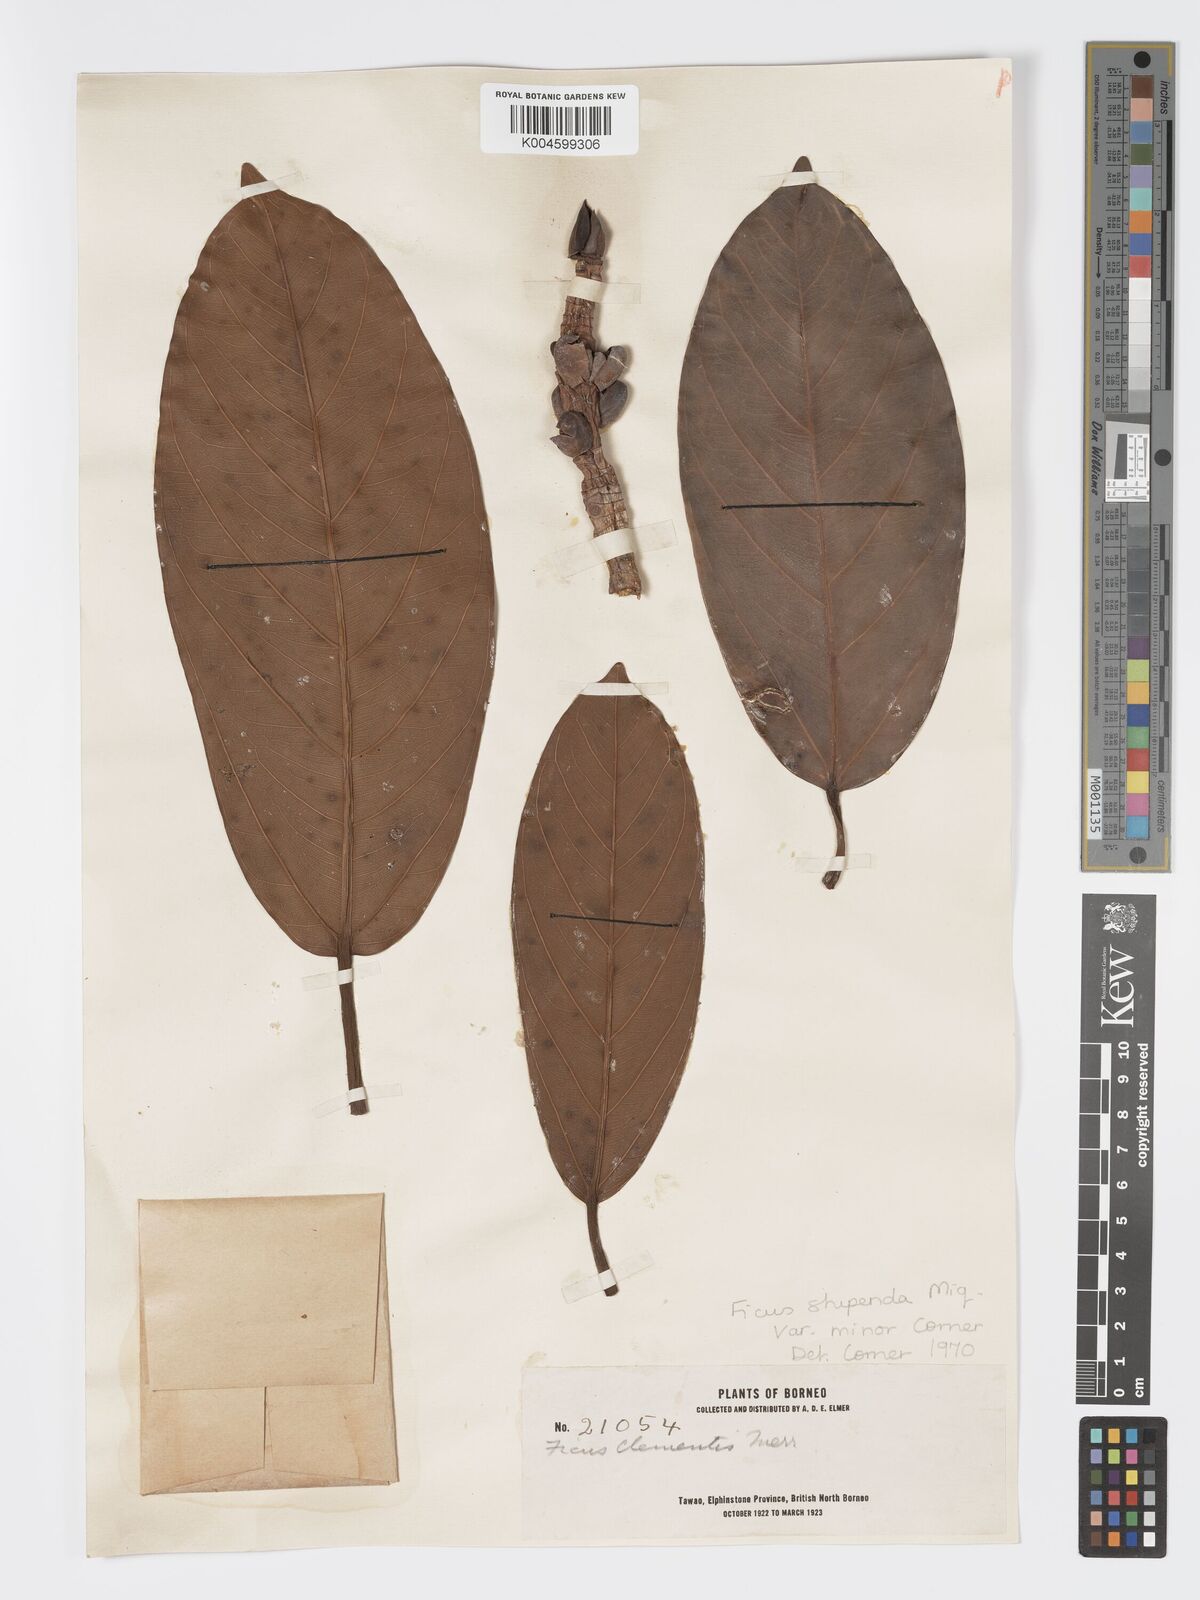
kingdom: Plantae
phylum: Tracheophyta
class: Magnoliopsida
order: Rosales
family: Moraceae
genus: Ficus
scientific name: Ficus crassiramea
